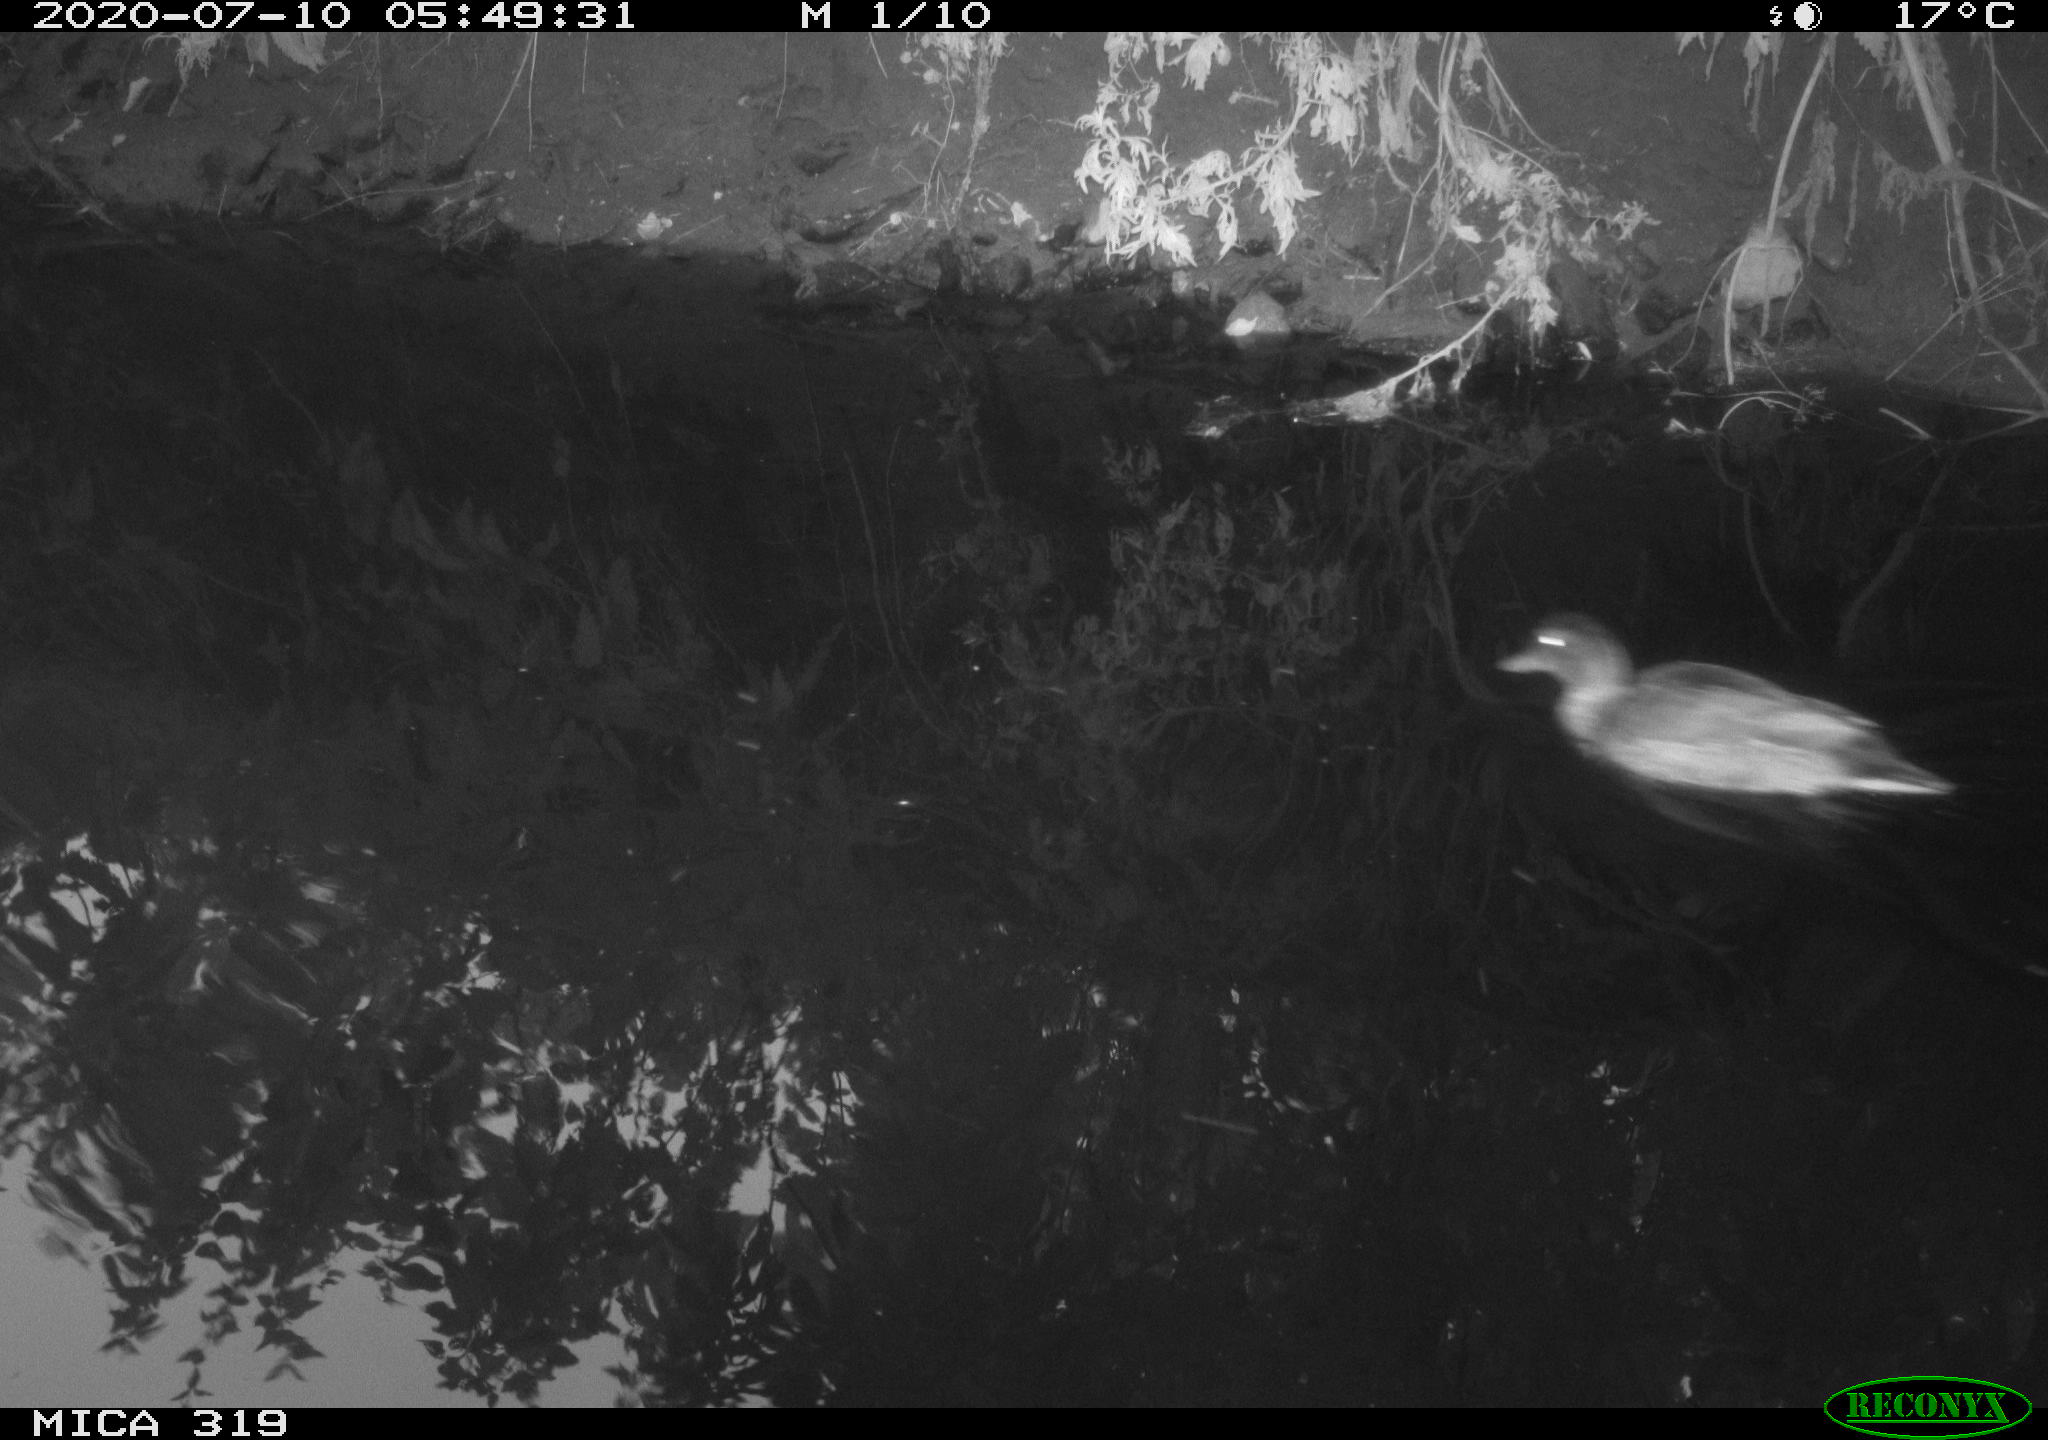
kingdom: Animalia
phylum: Chordata
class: Aves
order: Anseriformes
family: Anatidae
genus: Anas
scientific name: Anas platyrhynchos
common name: Mallard
